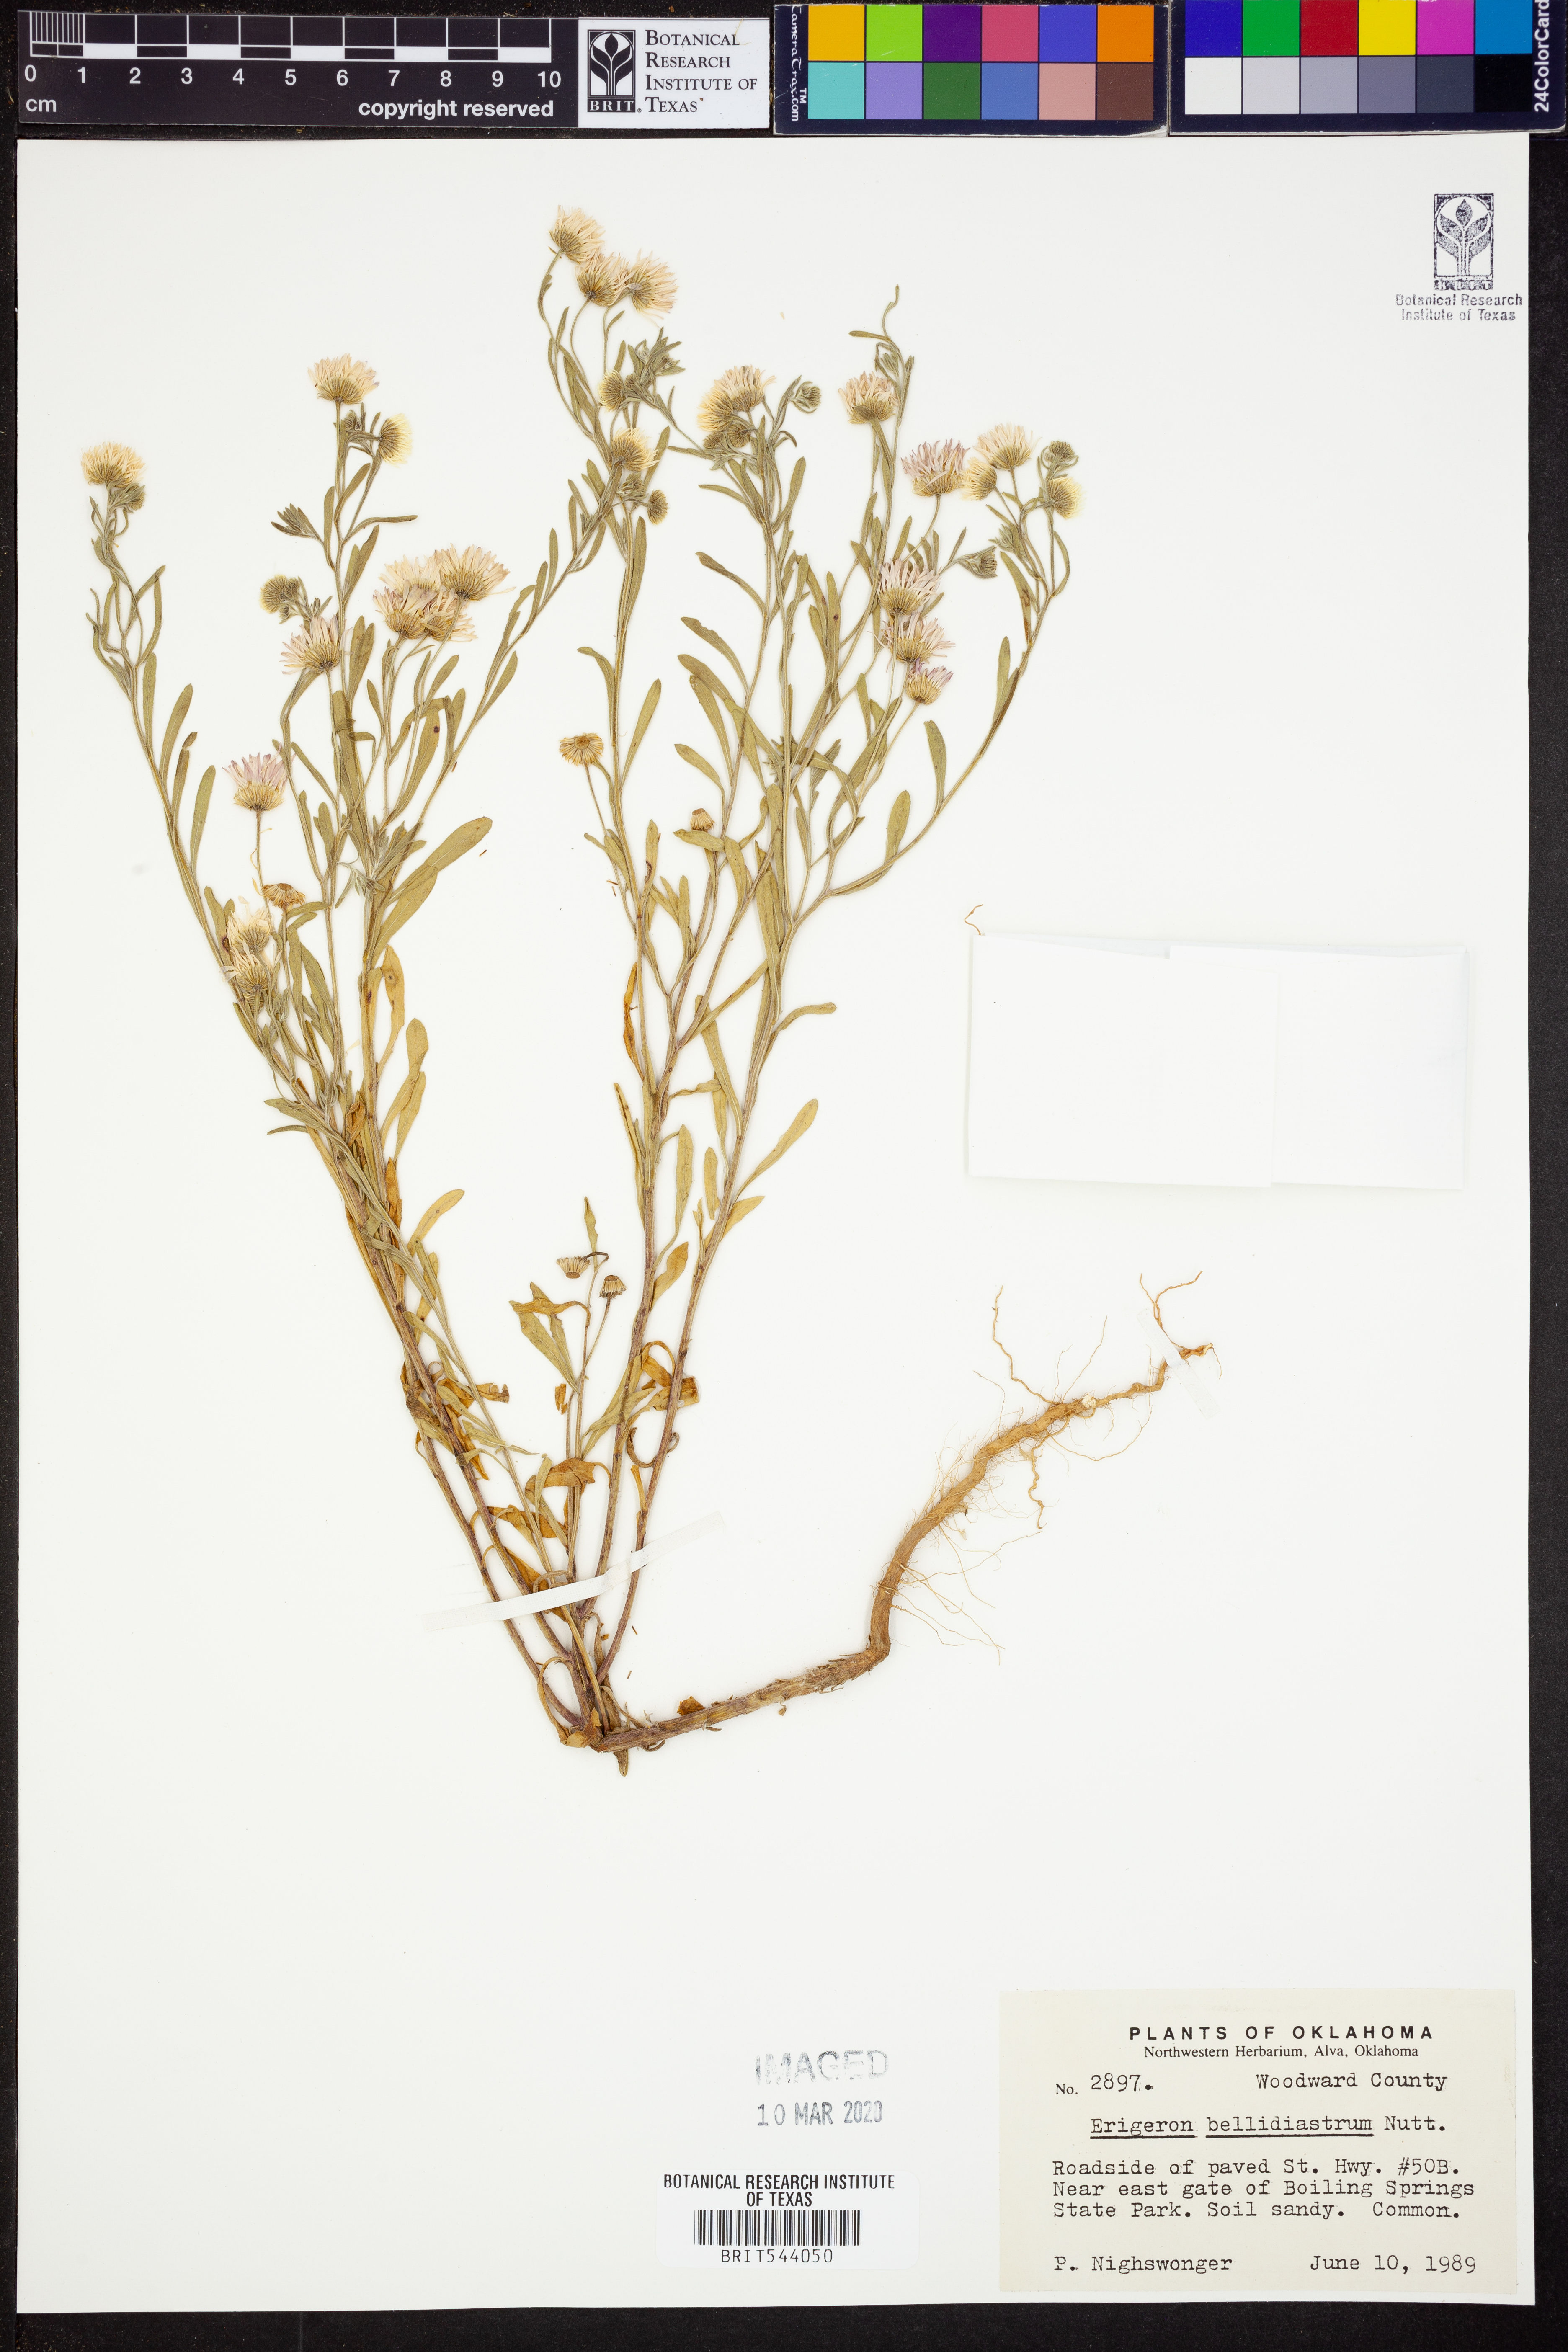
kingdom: Plantae
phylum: Tracheophyta
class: Magnoliopsida
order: Asterales
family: Asteraceae
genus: Erigeron
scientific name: Erigeron bellidiastrum
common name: Sand fleabane
